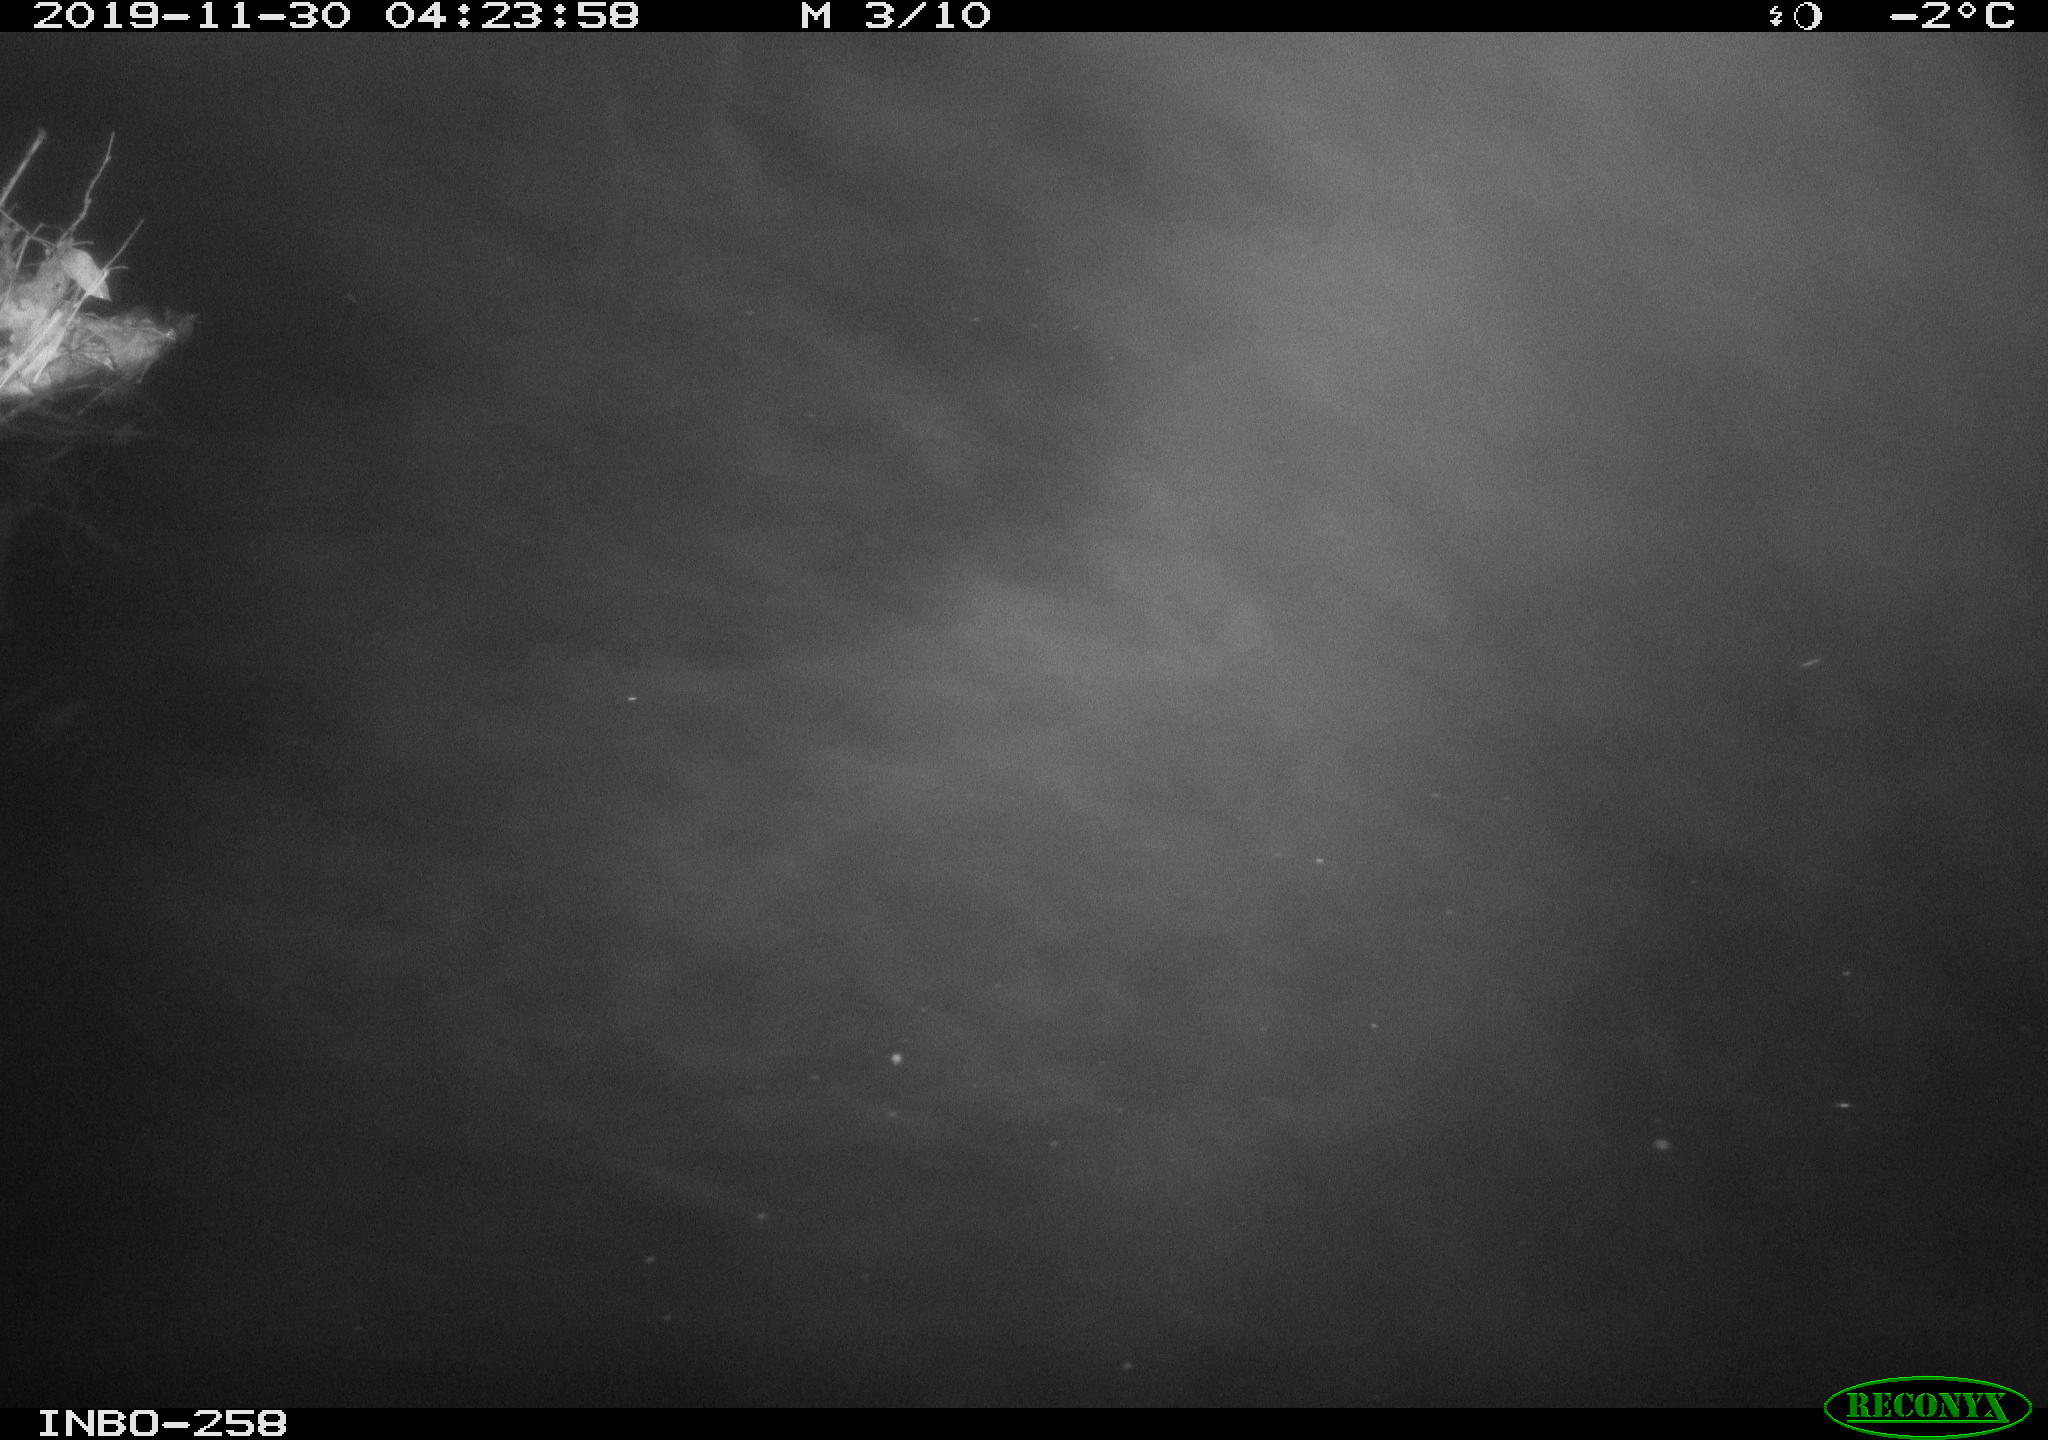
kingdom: Animalia
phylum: Chordata
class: Aves
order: Anseriformes
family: Anatidae
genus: Anas
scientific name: Anas platyrhynchos
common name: Mallard
